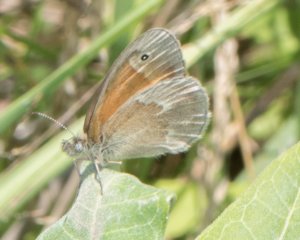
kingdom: Animalia
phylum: Arthropoda
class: Insecta
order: Lepidoptera
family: Nymphalidae
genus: Coenonympha
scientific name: Coenonympha tullia
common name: Large Heath
